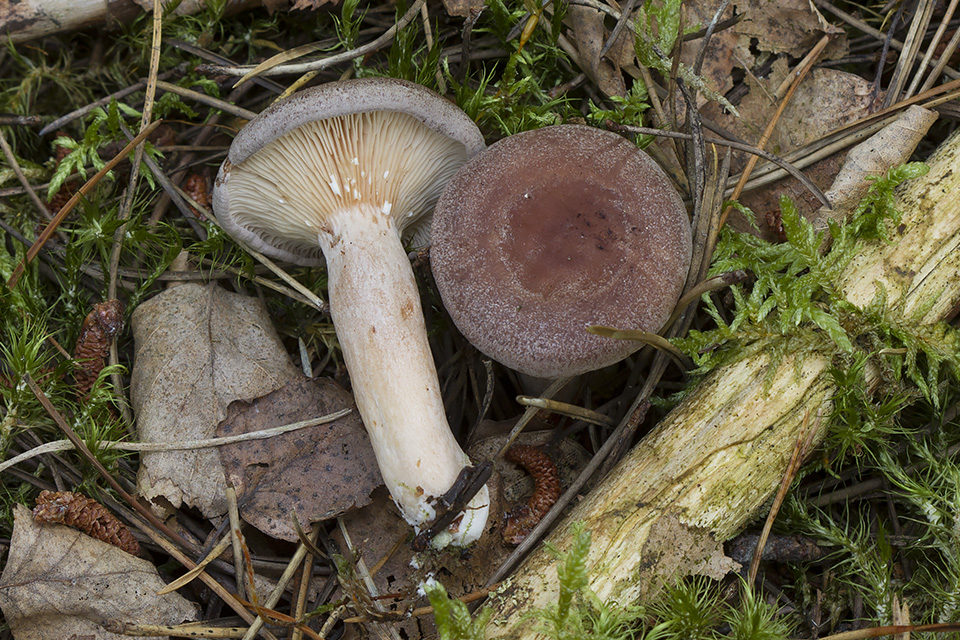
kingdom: Fungi
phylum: Basidiomycota
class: Agaricomycetes
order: Russulales
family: Russulaceae
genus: Lactarius
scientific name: Lactarius vietus
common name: violetgrå mælkehat
